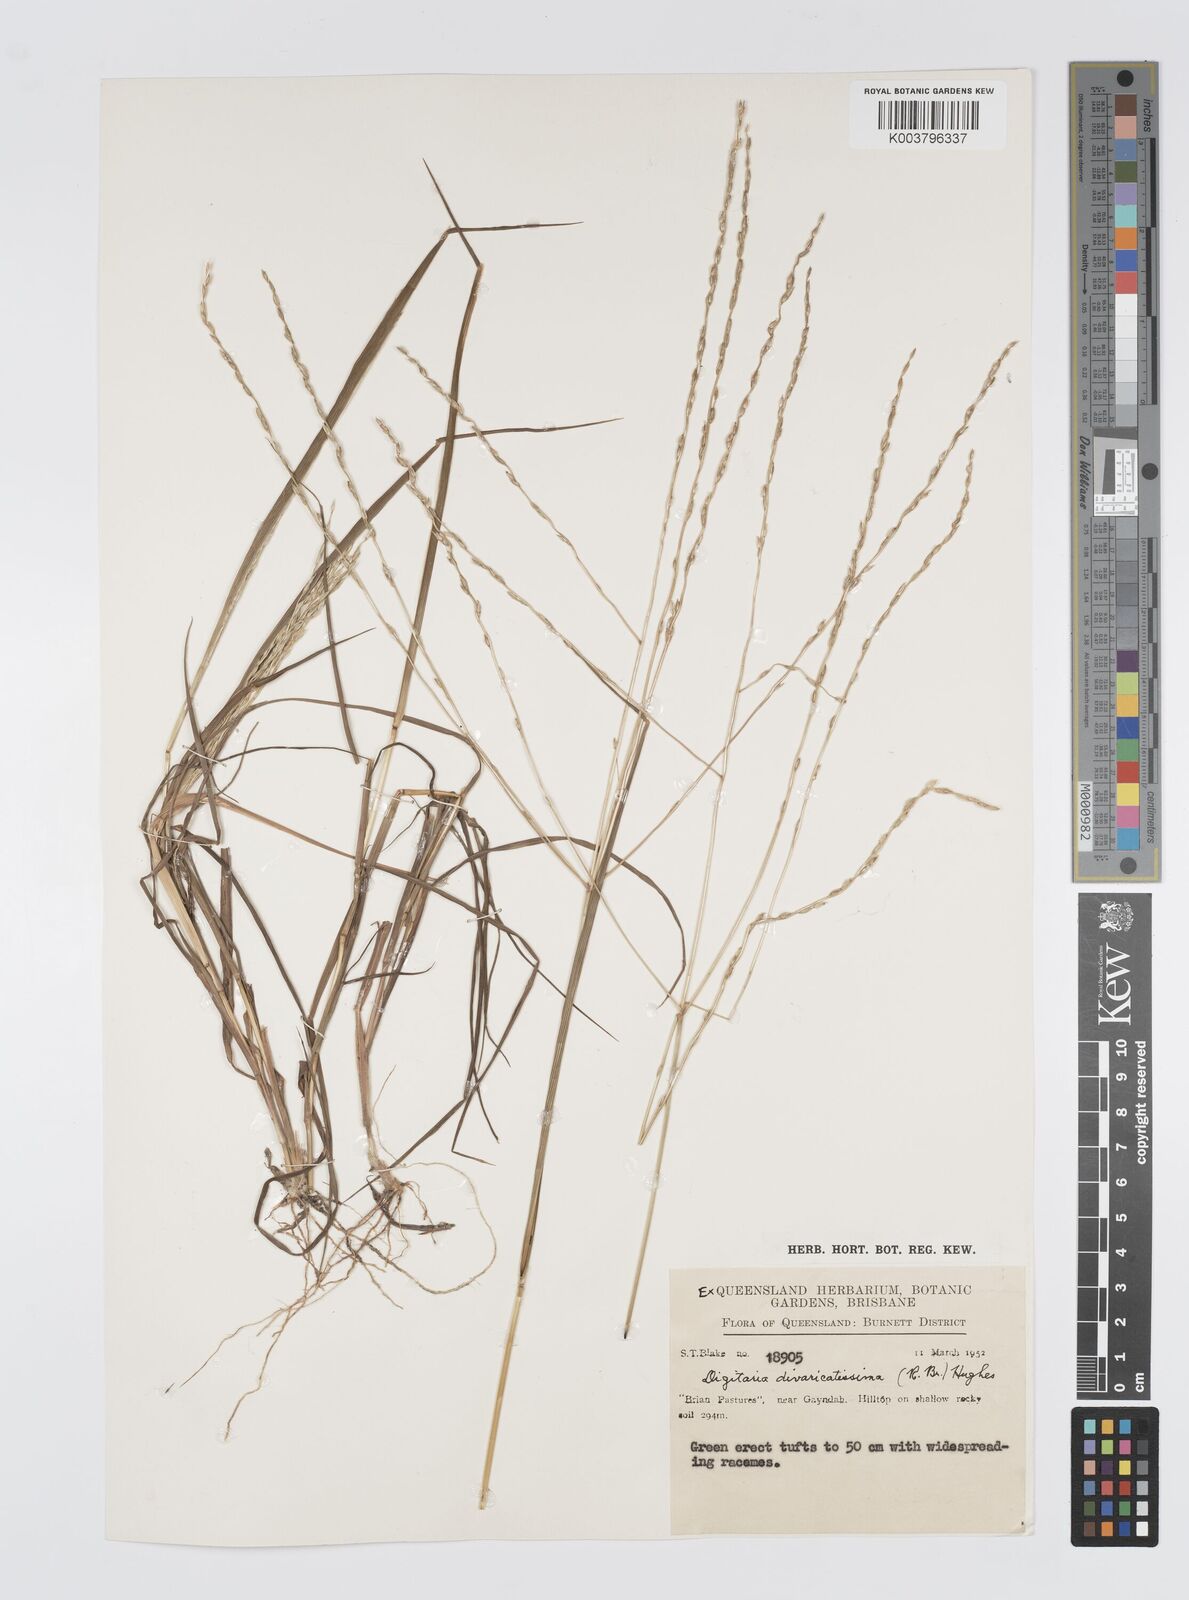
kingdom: Plantae
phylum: Tracheophyta
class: Liliopsida
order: Poales
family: Poaceae
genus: Digitaria
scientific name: Digitaria divaricatissima
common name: Crabgrass
